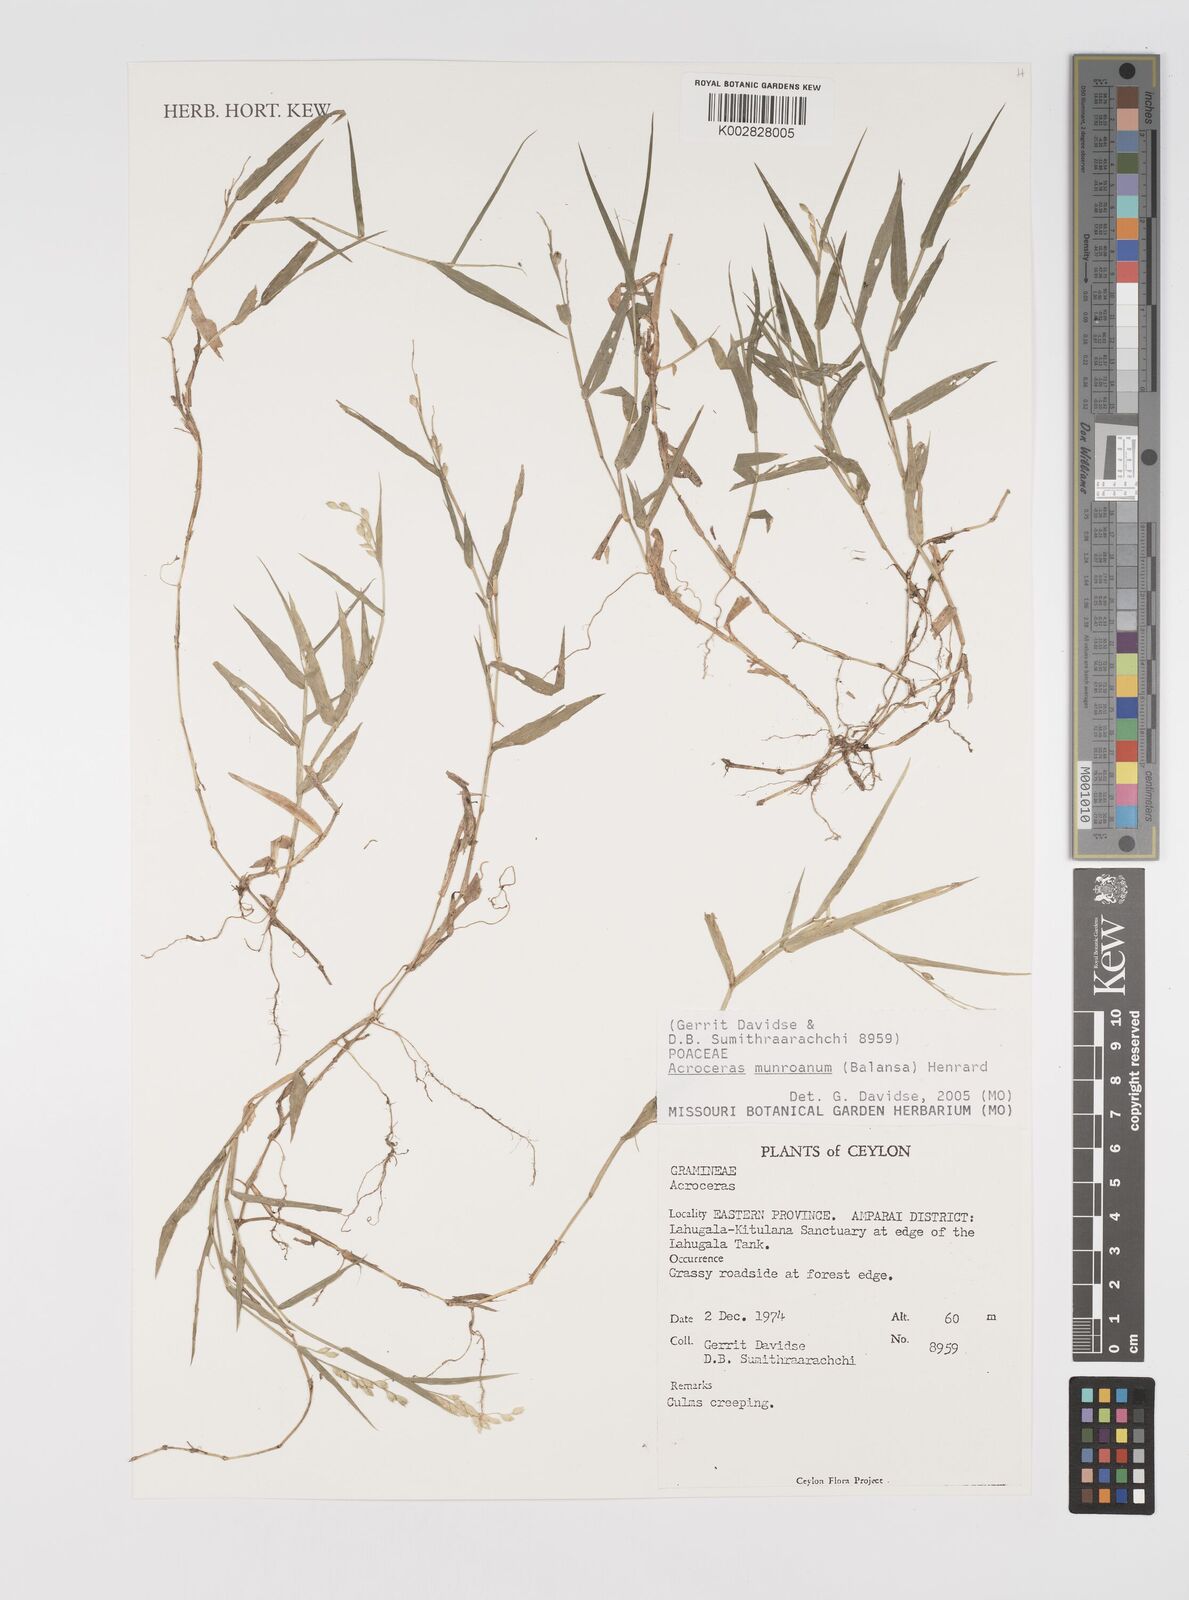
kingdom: Plantae
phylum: Tracheophyta
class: Liliopsida
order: Poales
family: Poaceae
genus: Acroceras
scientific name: Acroceras munroanum
